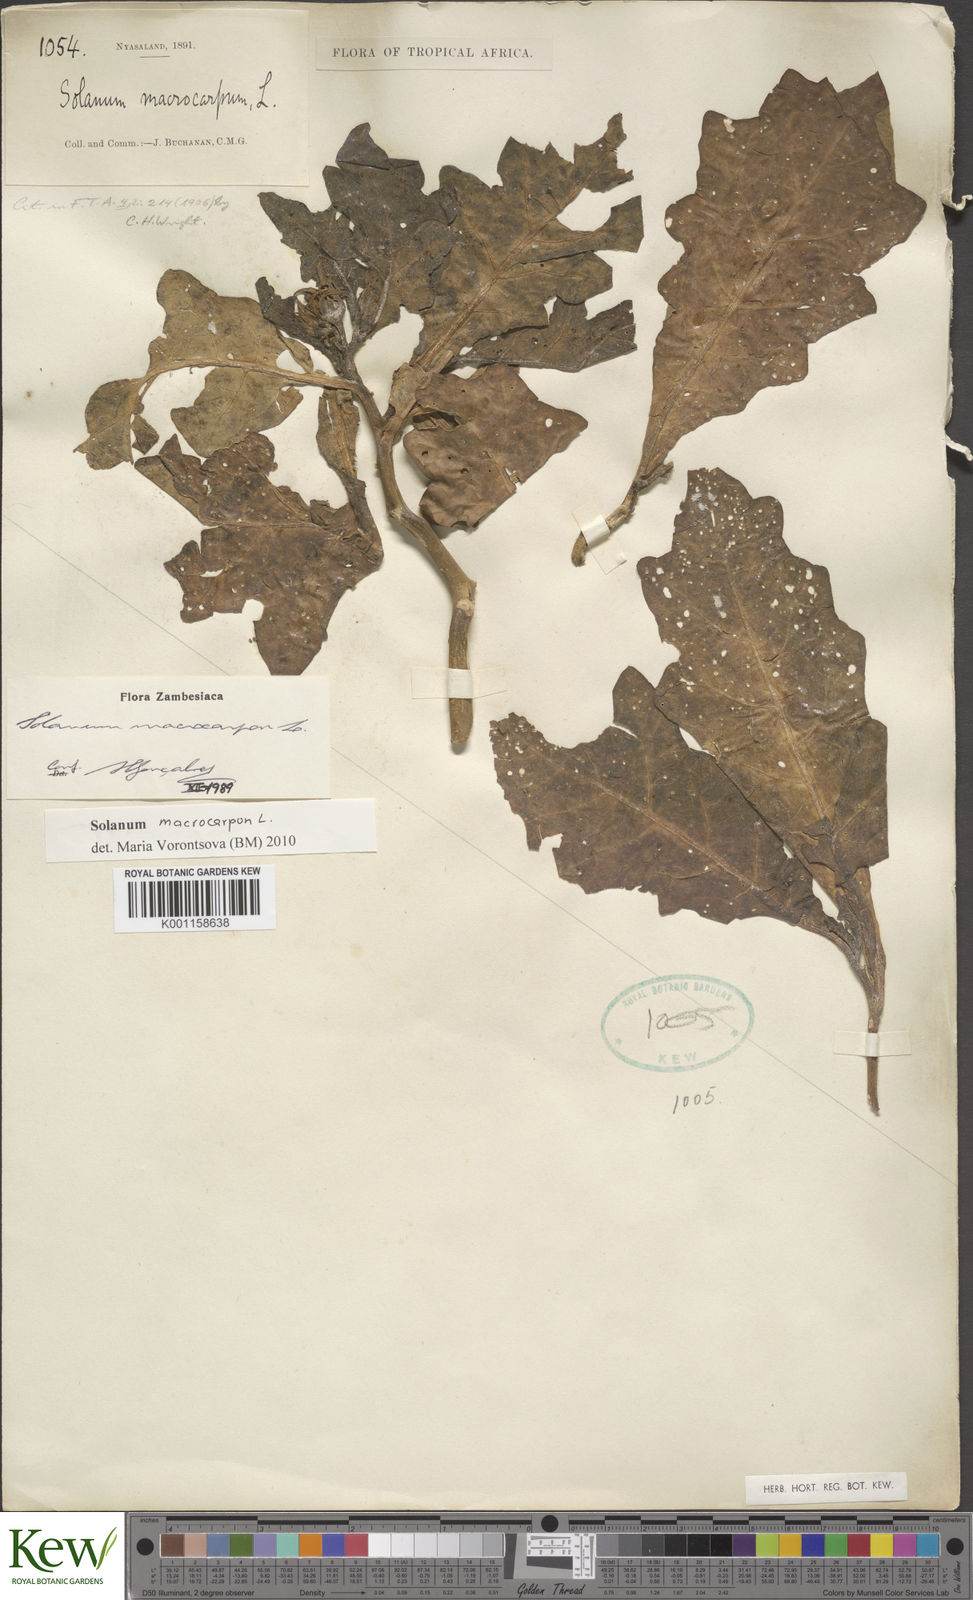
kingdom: Plantae
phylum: Tracheophyta
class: Magnoliopsida
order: Solanales
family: Solanaceae
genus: Solanum
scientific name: Solanum macrocarpon
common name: African eggplant
